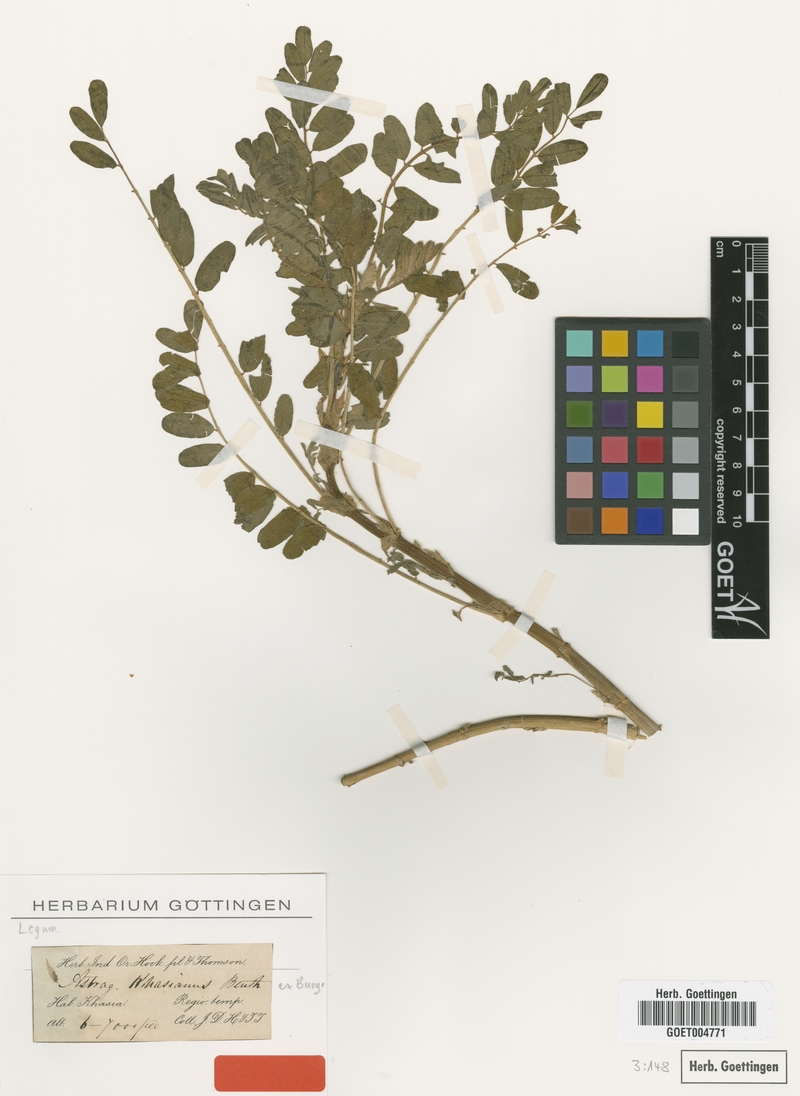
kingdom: Plantae
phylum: Tracheophyta
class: Magnoliopsida
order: Fabales
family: Fabaceae
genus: Astragalus
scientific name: Astragalus khasianus
